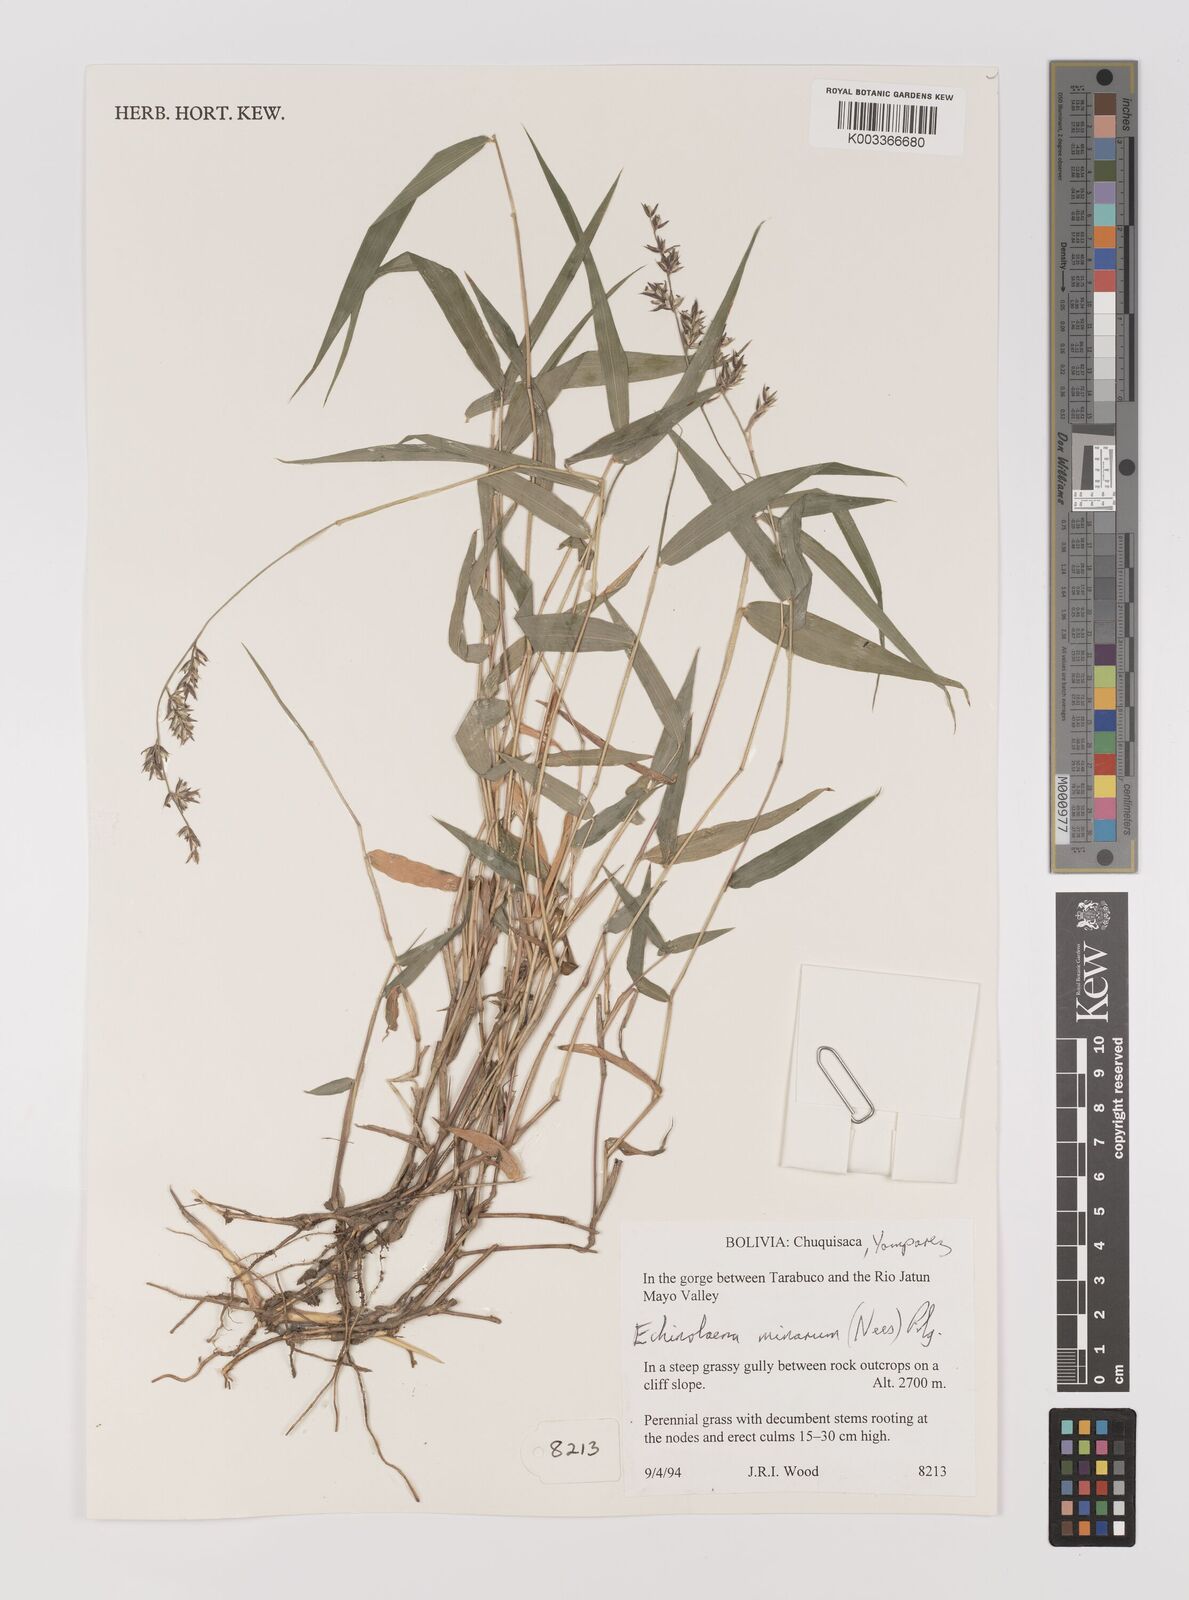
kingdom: Plantae
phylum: Tracheophyta
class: Liliopsida
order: Poales
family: Poaceae
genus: Oedochloa
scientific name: Oedochloa minarum
